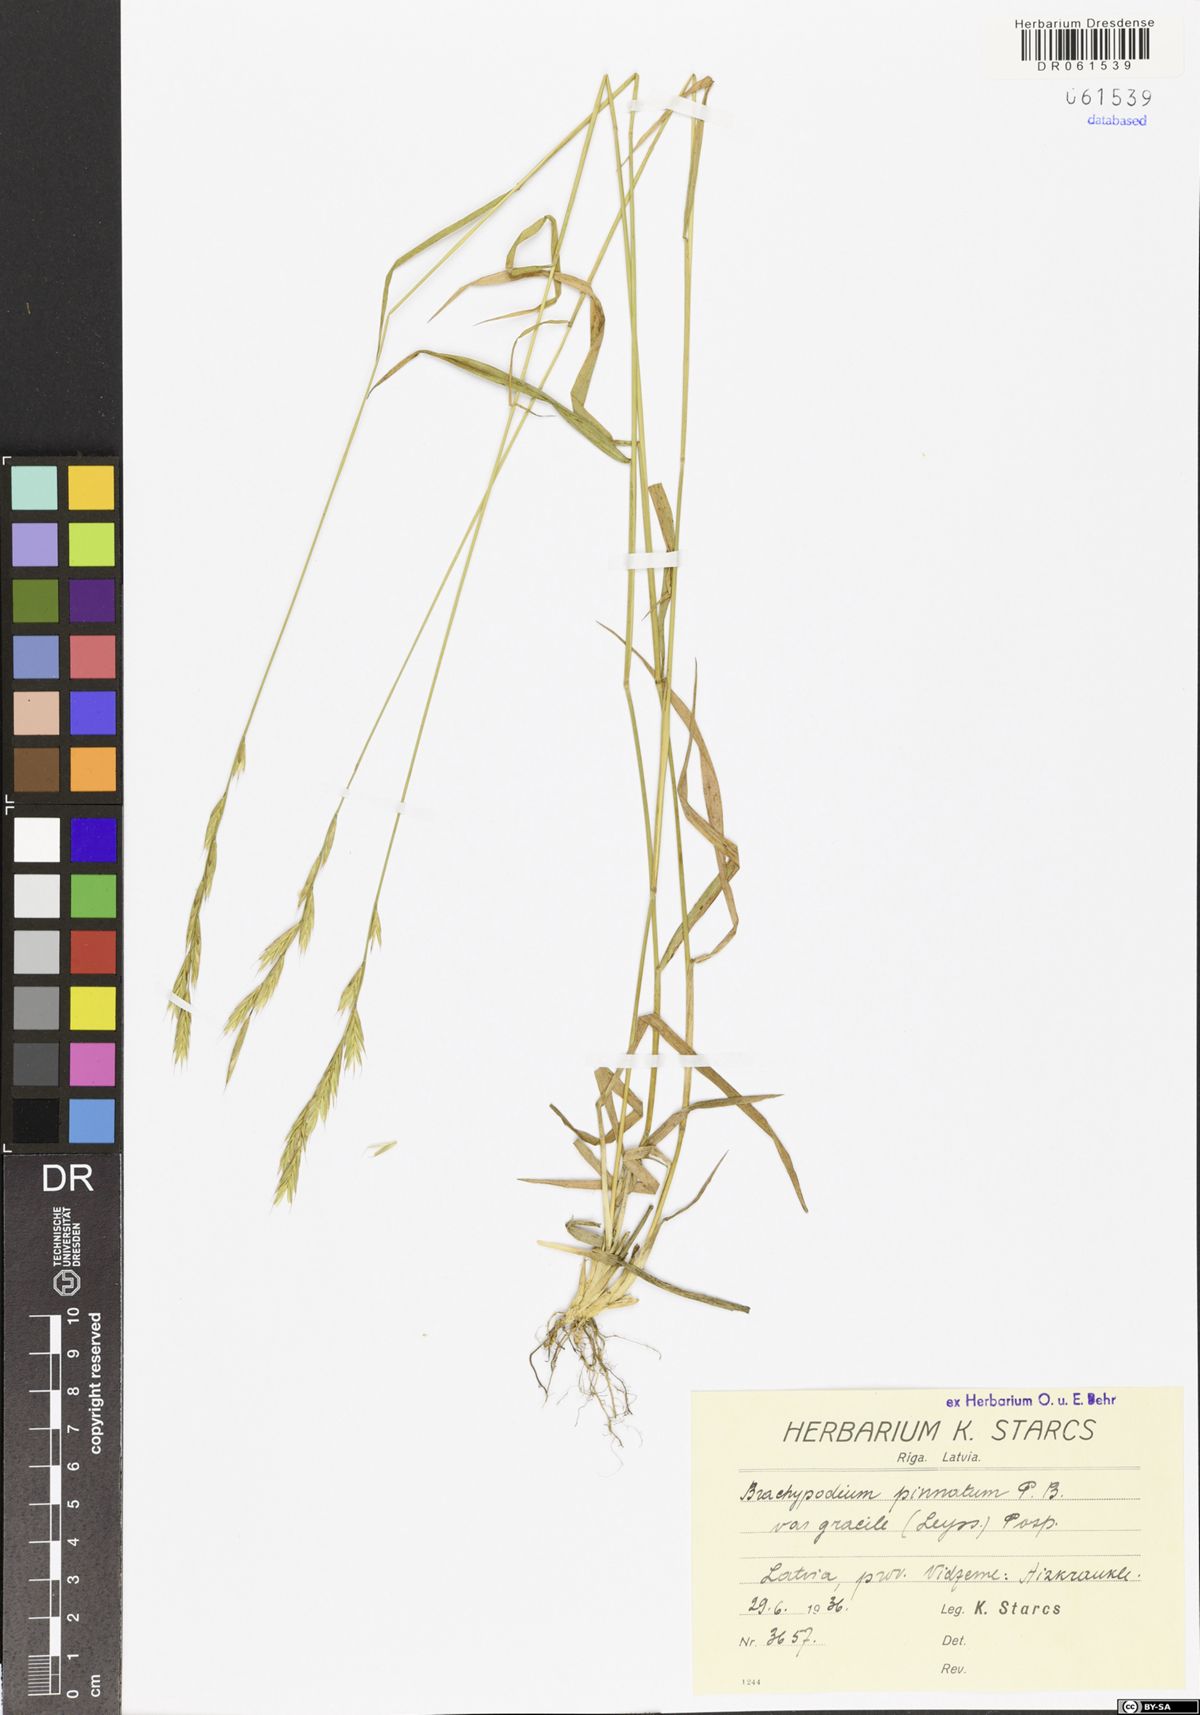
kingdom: Plantae
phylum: Tracheophyta
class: Liliopsida
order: Poales
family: Poaceae
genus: Brachypodium
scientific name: Brachypodium pinnatum
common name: Tor grass
